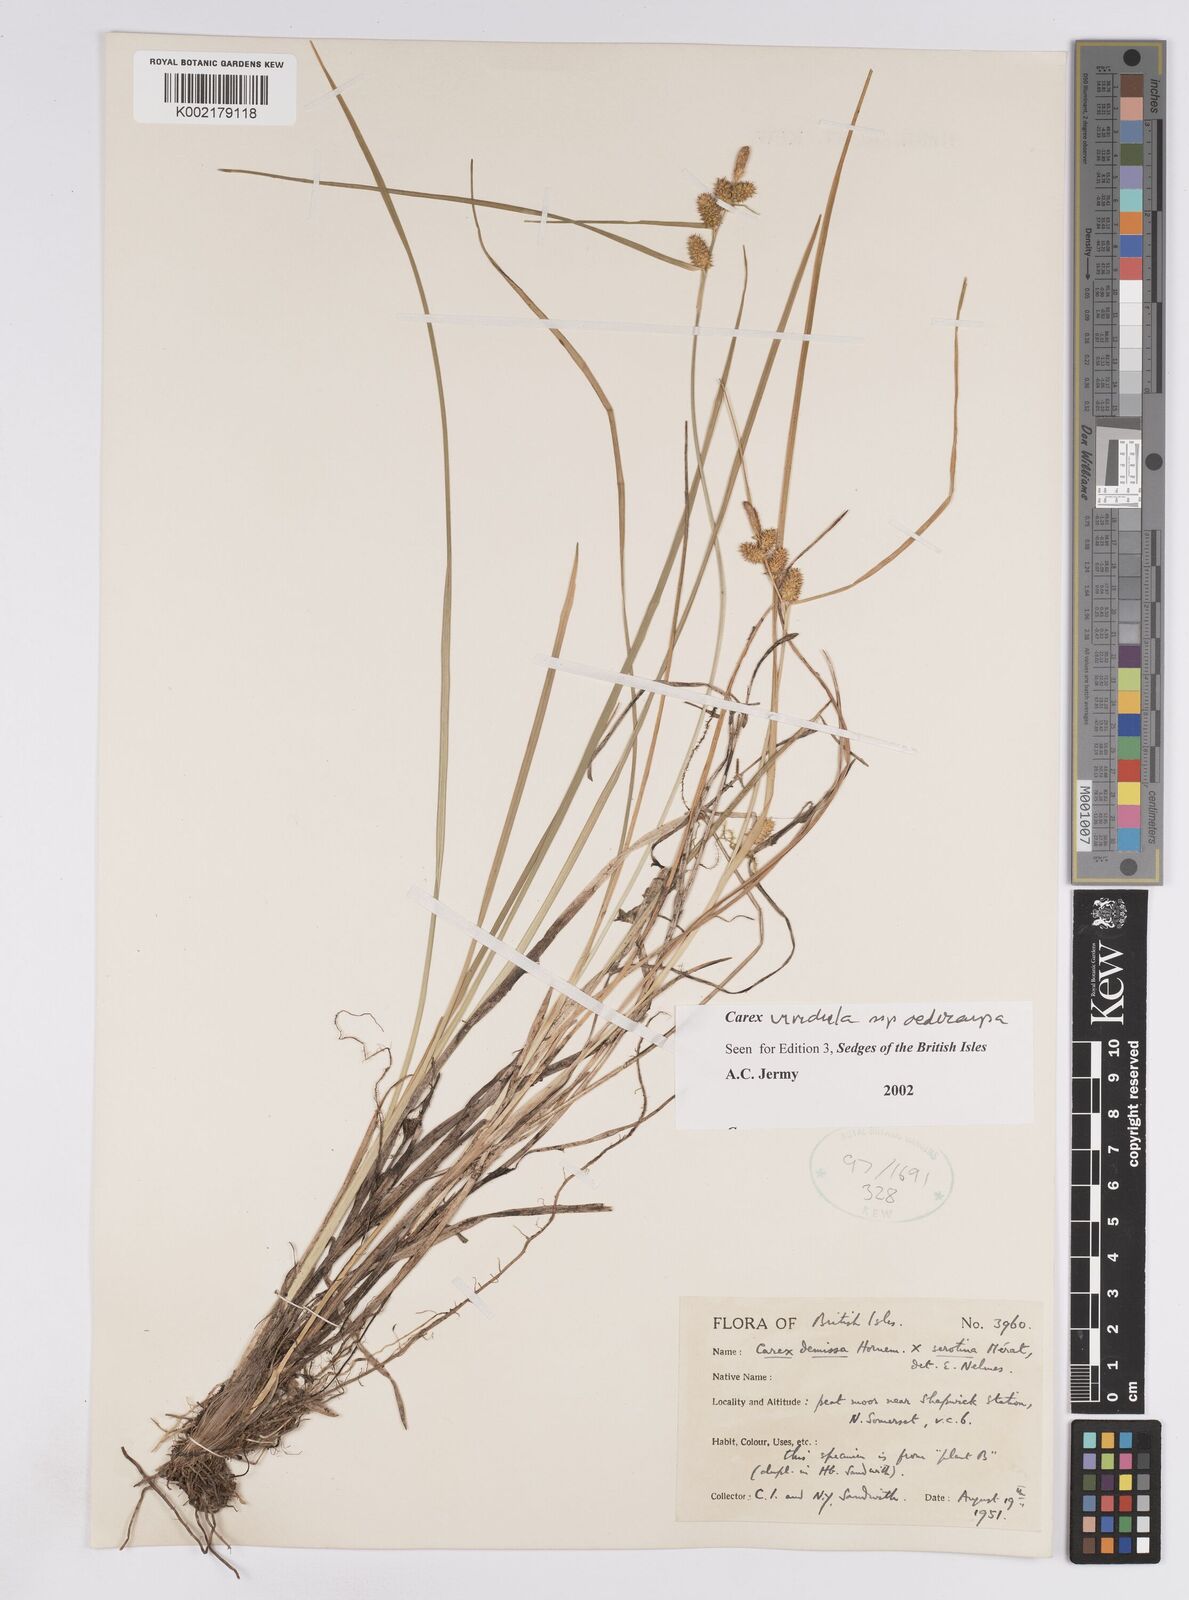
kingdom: Plantae
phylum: Tracheophyta
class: Liliopsida
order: Poales
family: Cyperaceae
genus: Carex
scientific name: Carex demissa
